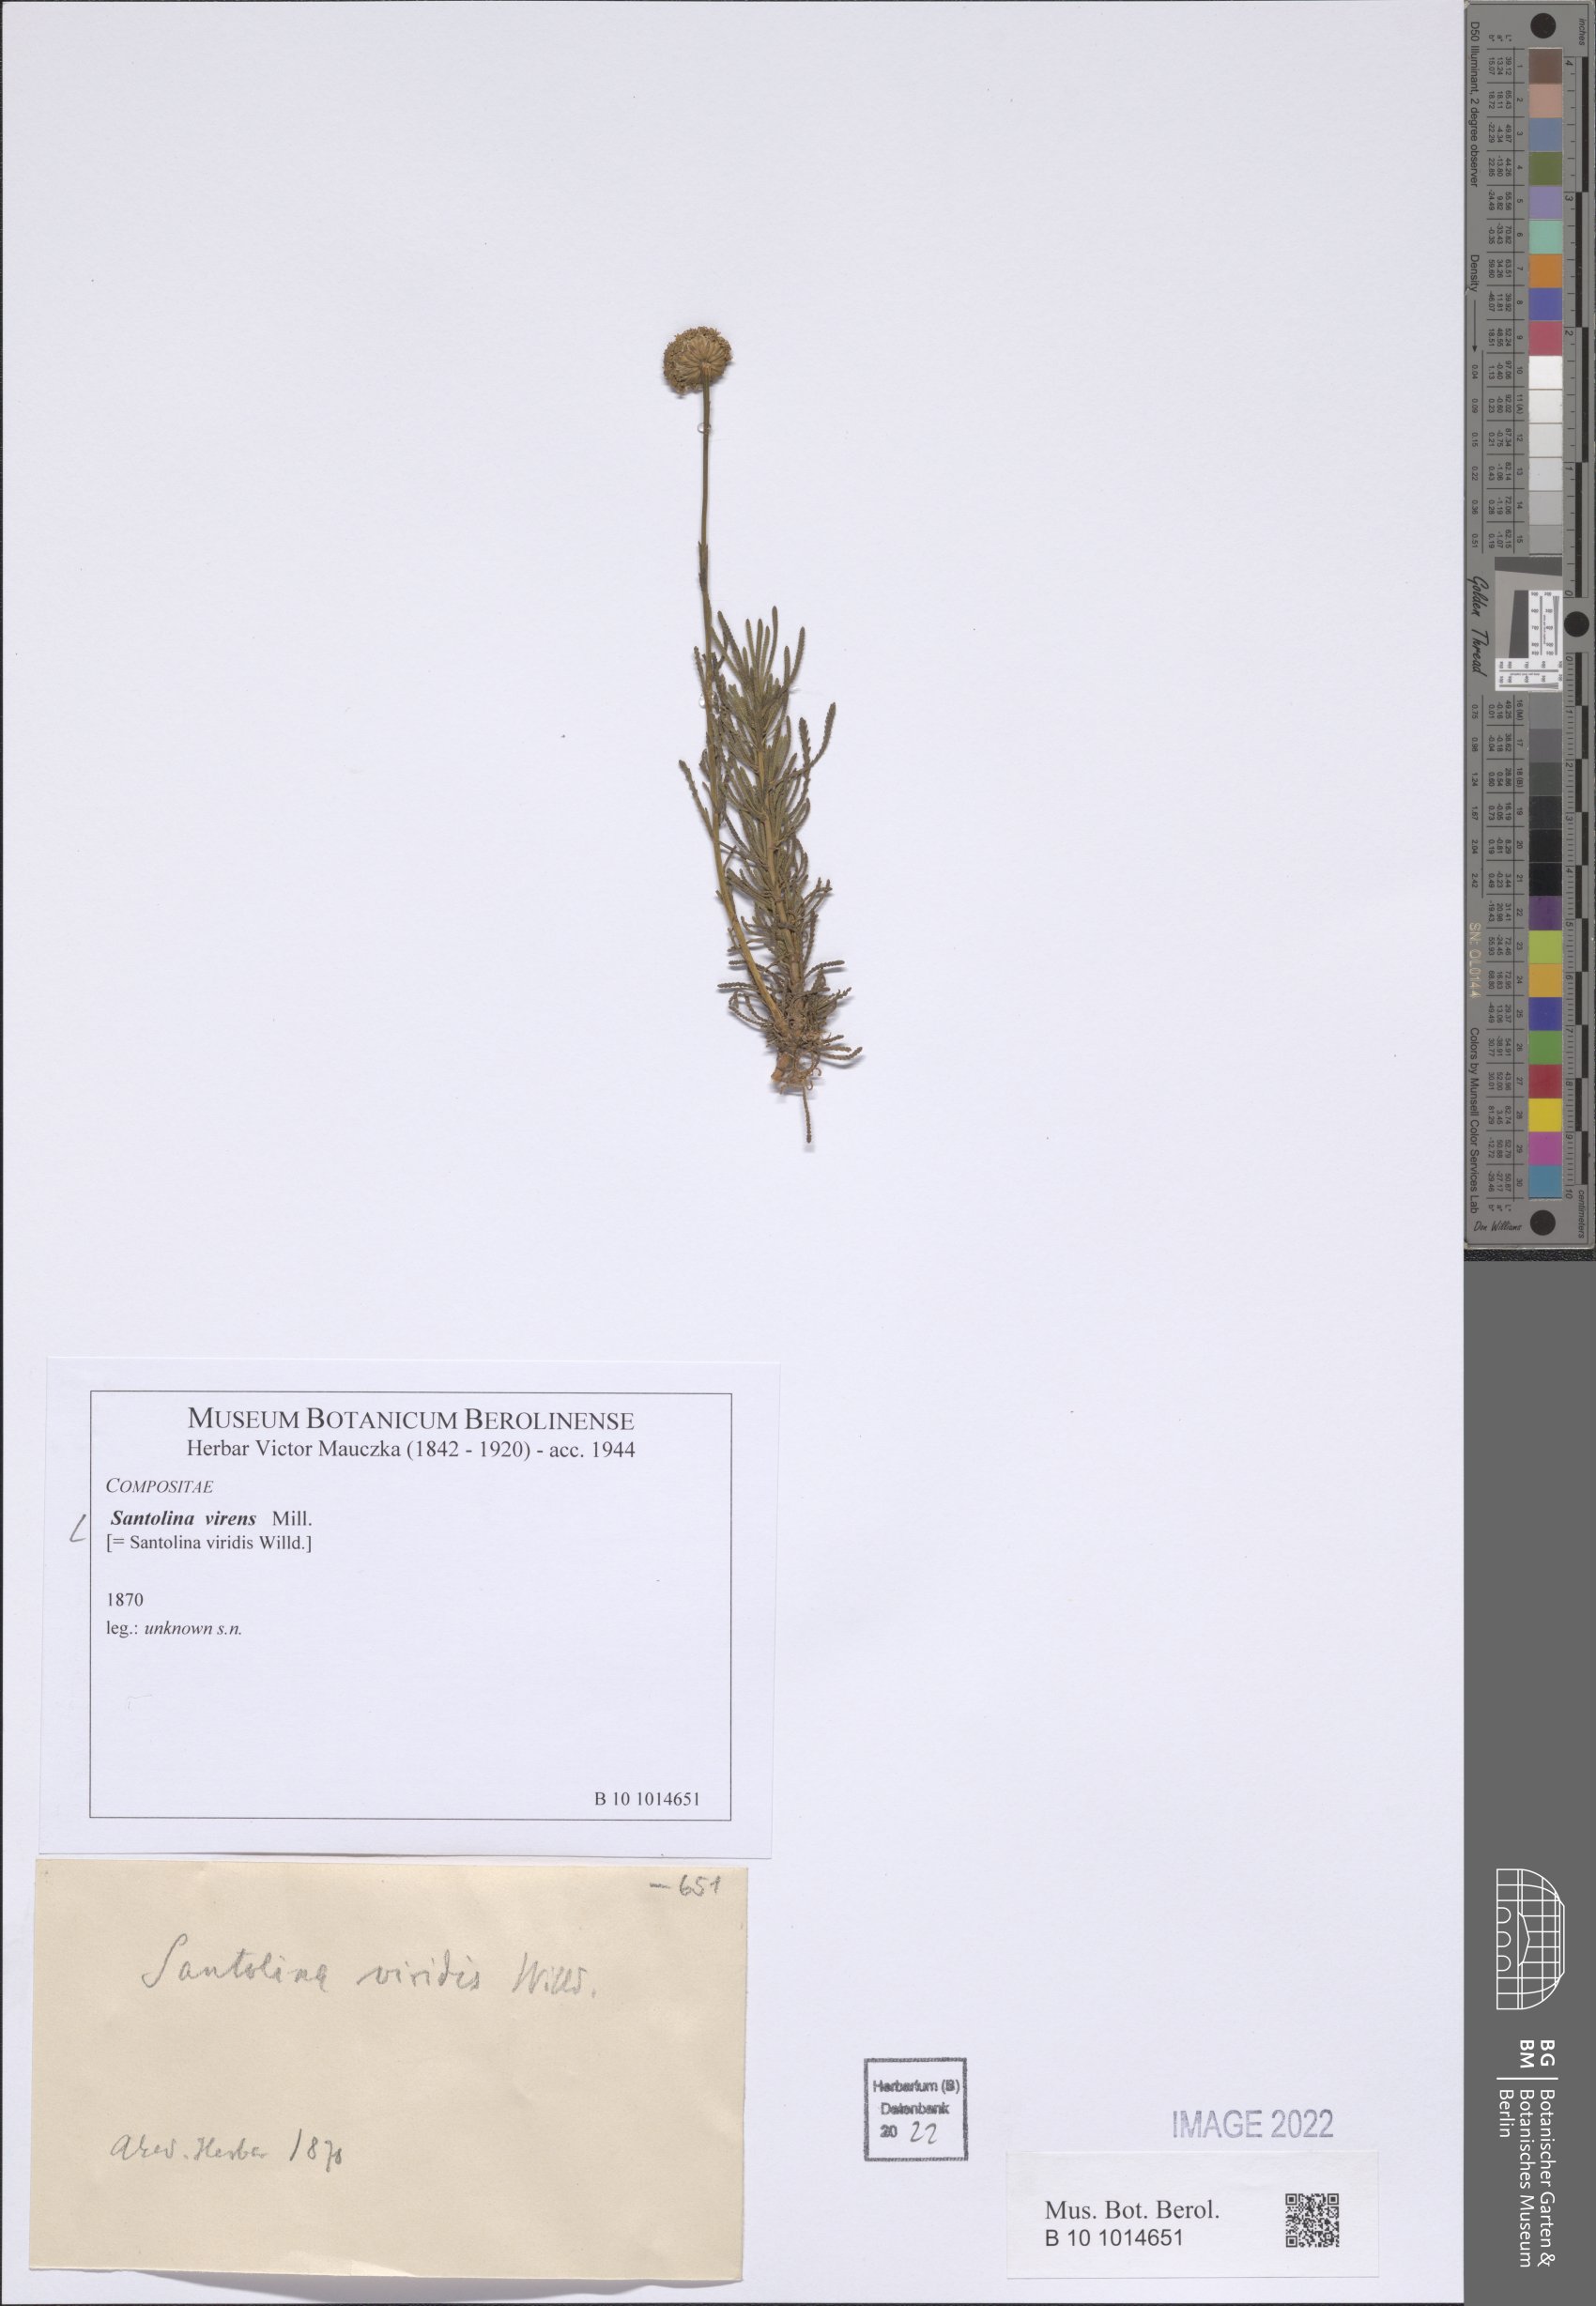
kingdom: Plantae
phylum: Tracheophyta
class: Magnoliopsida
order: Asterales
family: Asteraceae
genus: Santolina
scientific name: Santolina virens
